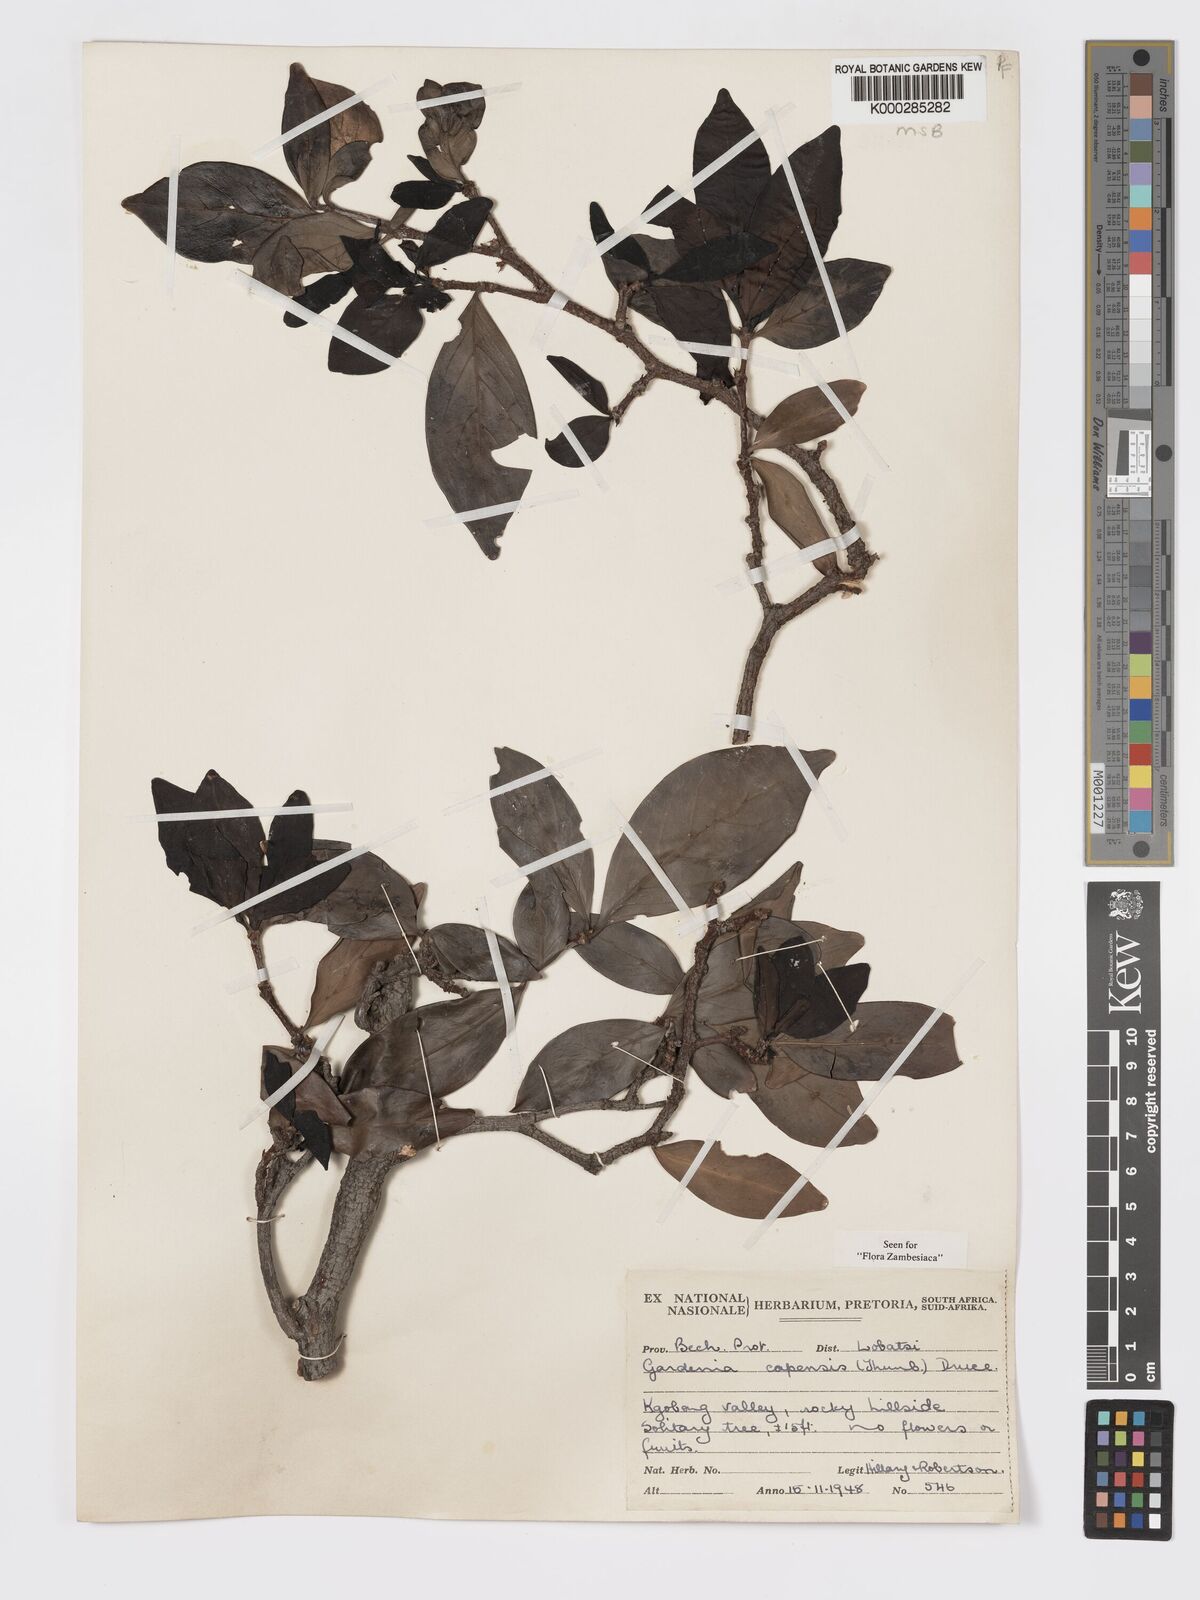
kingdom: Plantae
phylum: Tracheophyta
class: Magnoliopsida
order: Gentianales
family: Rubiaceae
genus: Rothmannia
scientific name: Rothmannia capensis
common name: Cape gardenia
